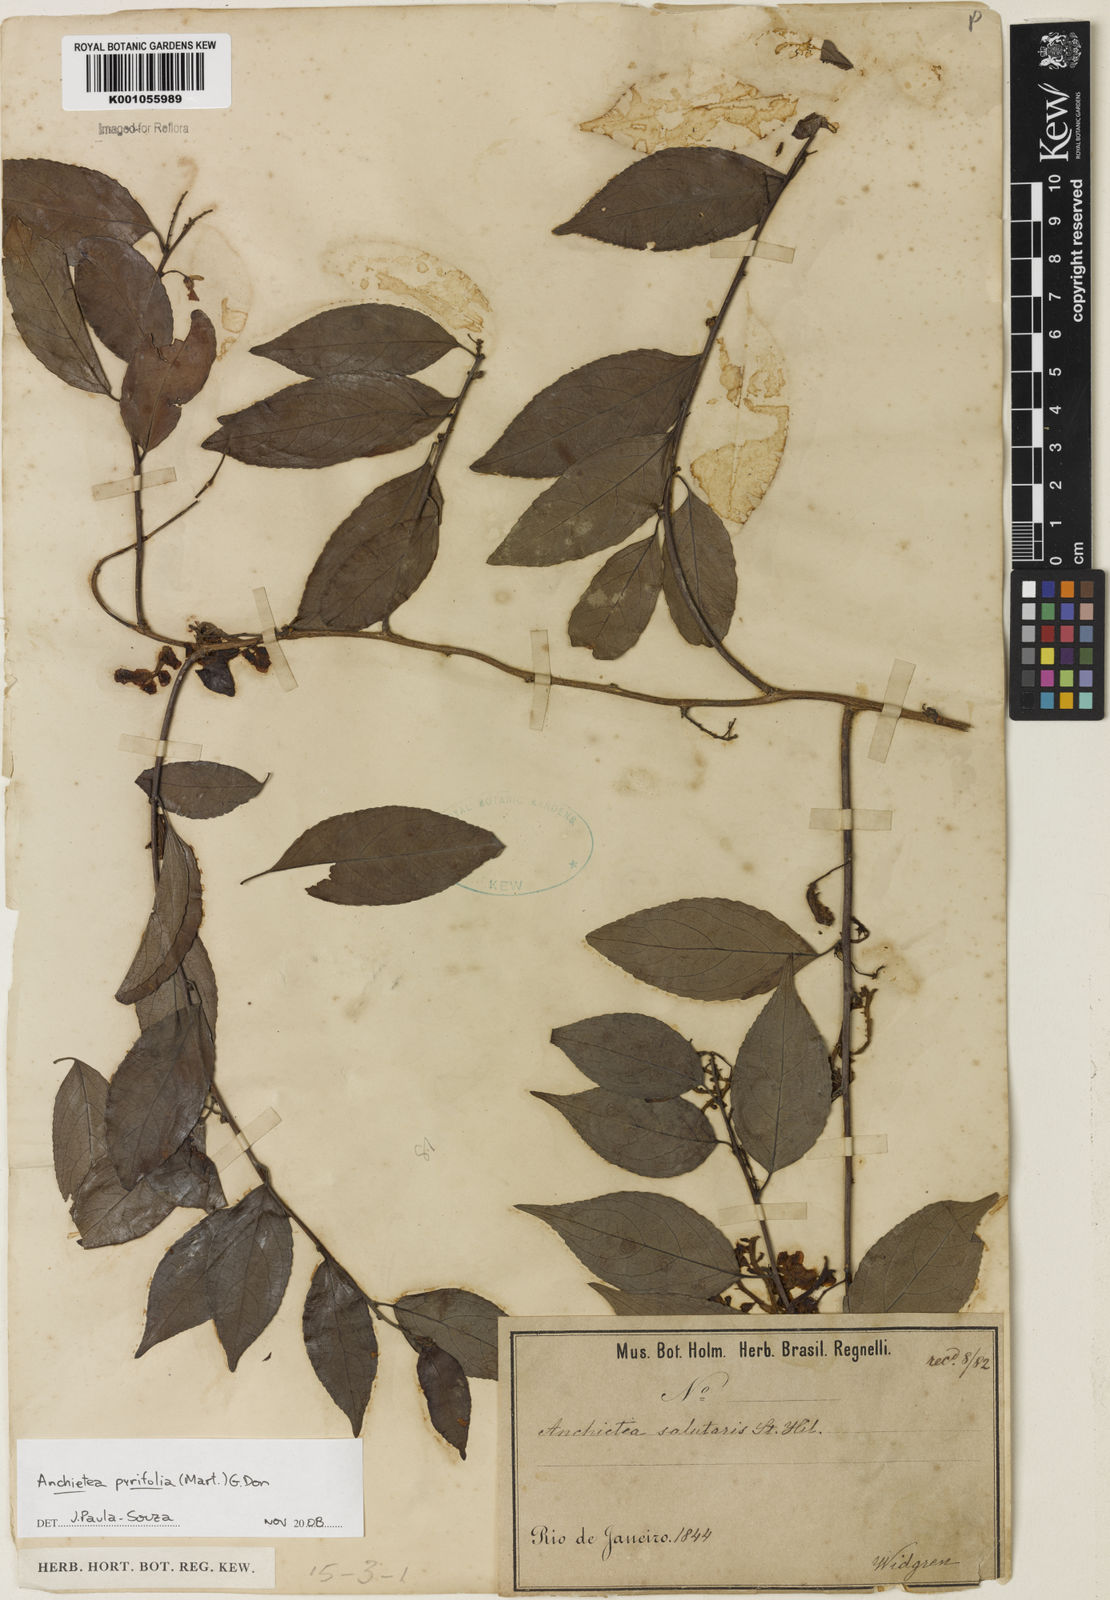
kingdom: Plantae
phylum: Tracheophyta
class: Magnoliopsida
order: Malpighiales
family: Violaceae
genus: Anchietea
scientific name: Anchietea pyrifolia
